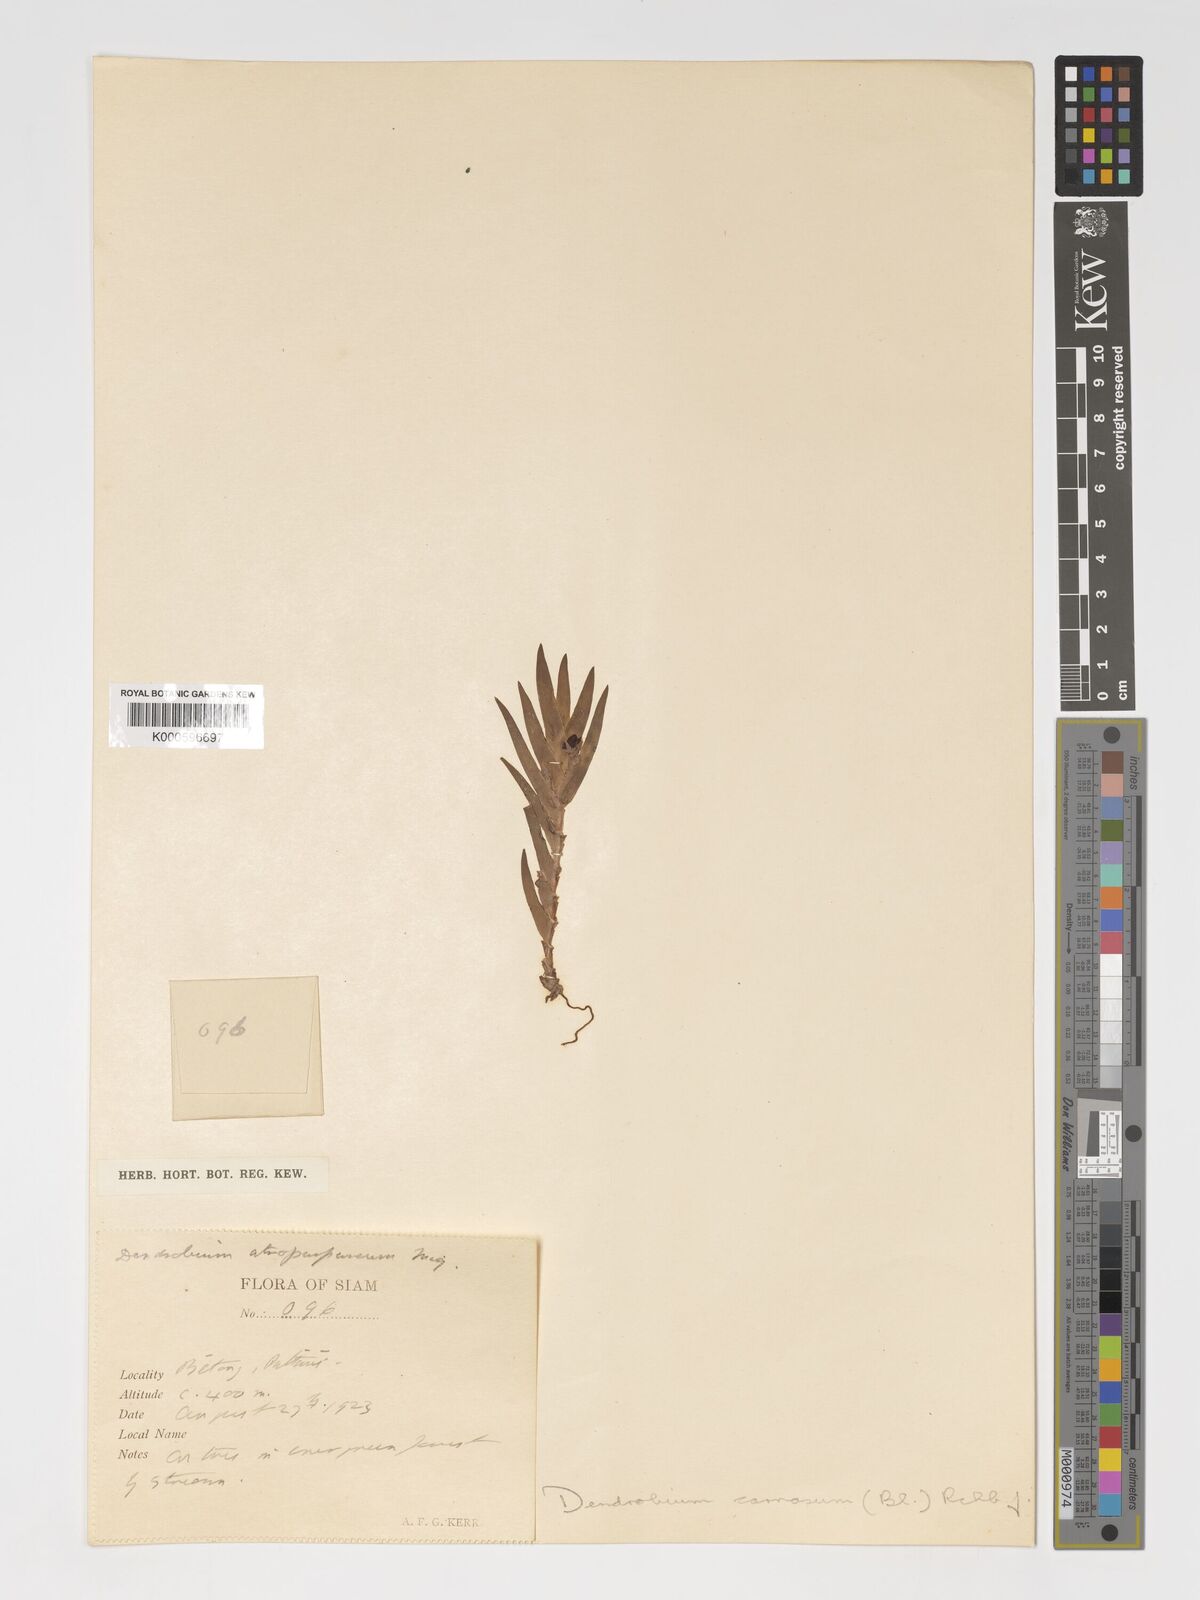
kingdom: Plantae
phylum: Tracheophyta
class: Liliopsida
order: Asparagales
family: Orchidaceae
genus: Oxystophyllum
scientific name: Oxystophyllum carnosum
